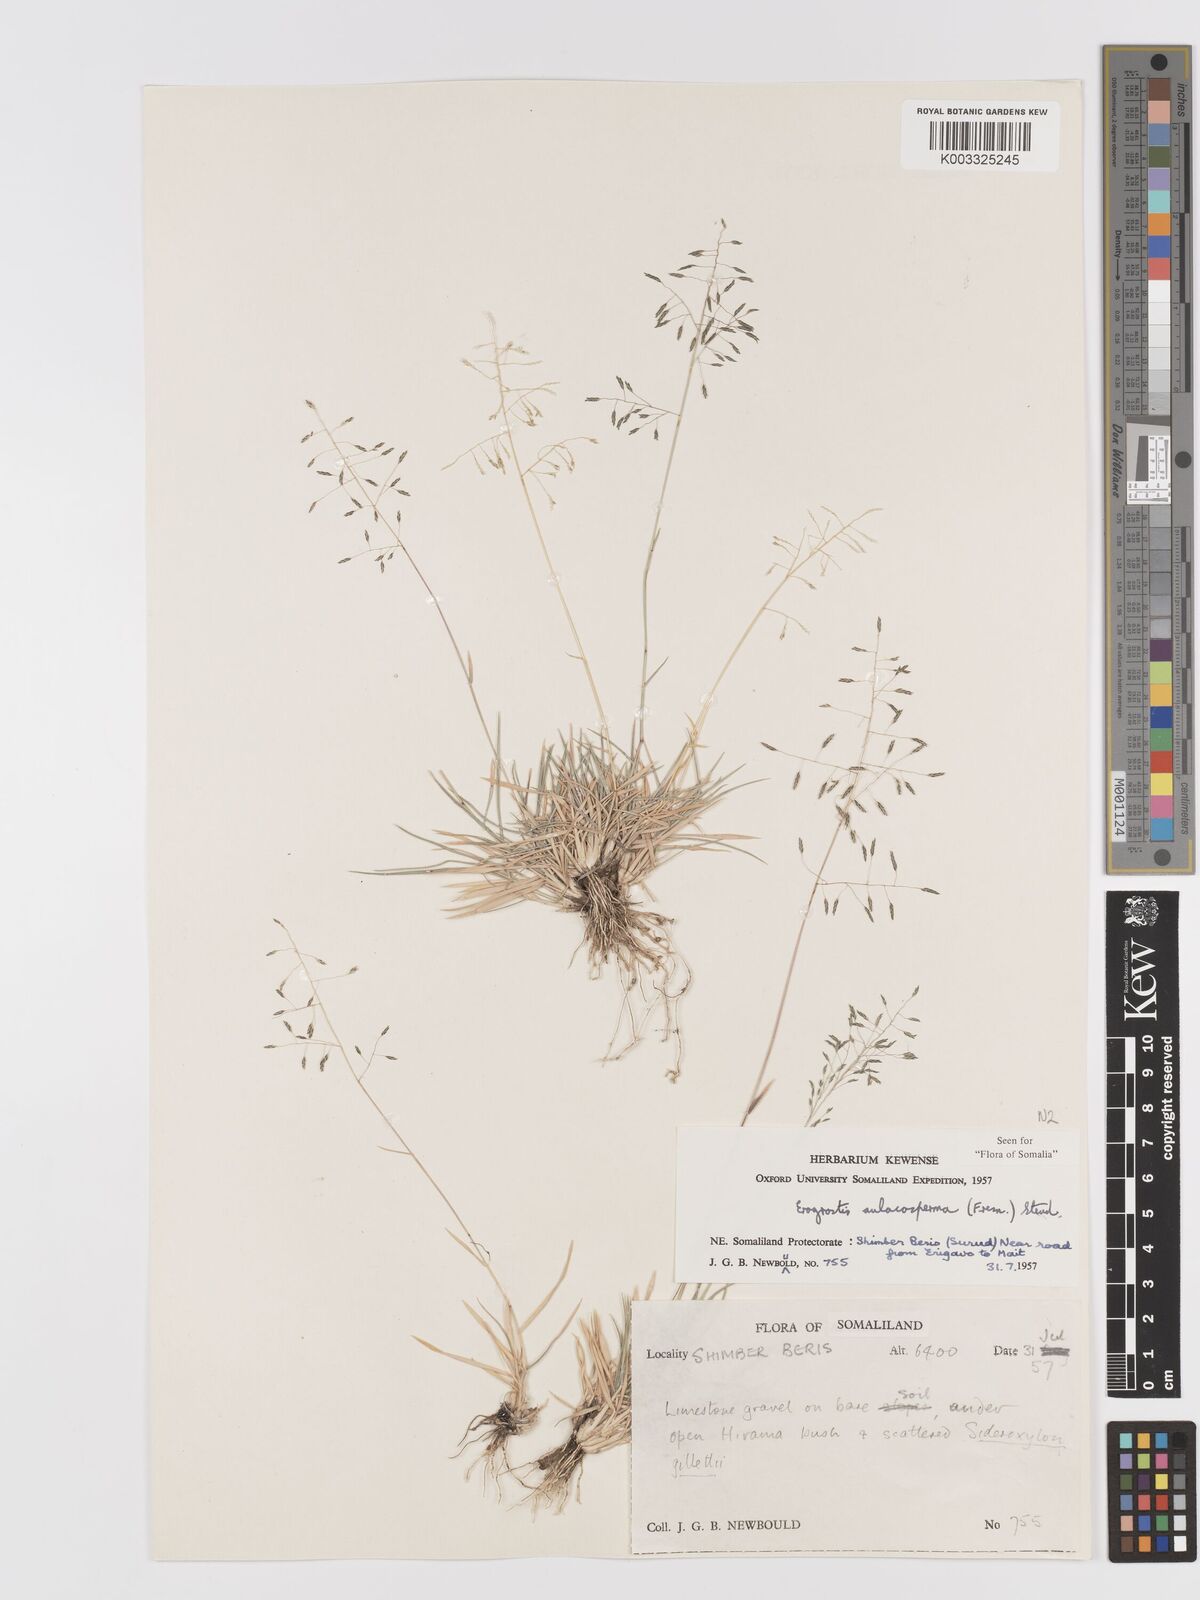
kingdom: Plantae
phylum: Tracheophyta
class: Liliopsida
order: Poales
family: Poaceae
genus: Eragrostis
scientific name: Eragrostis papposa
